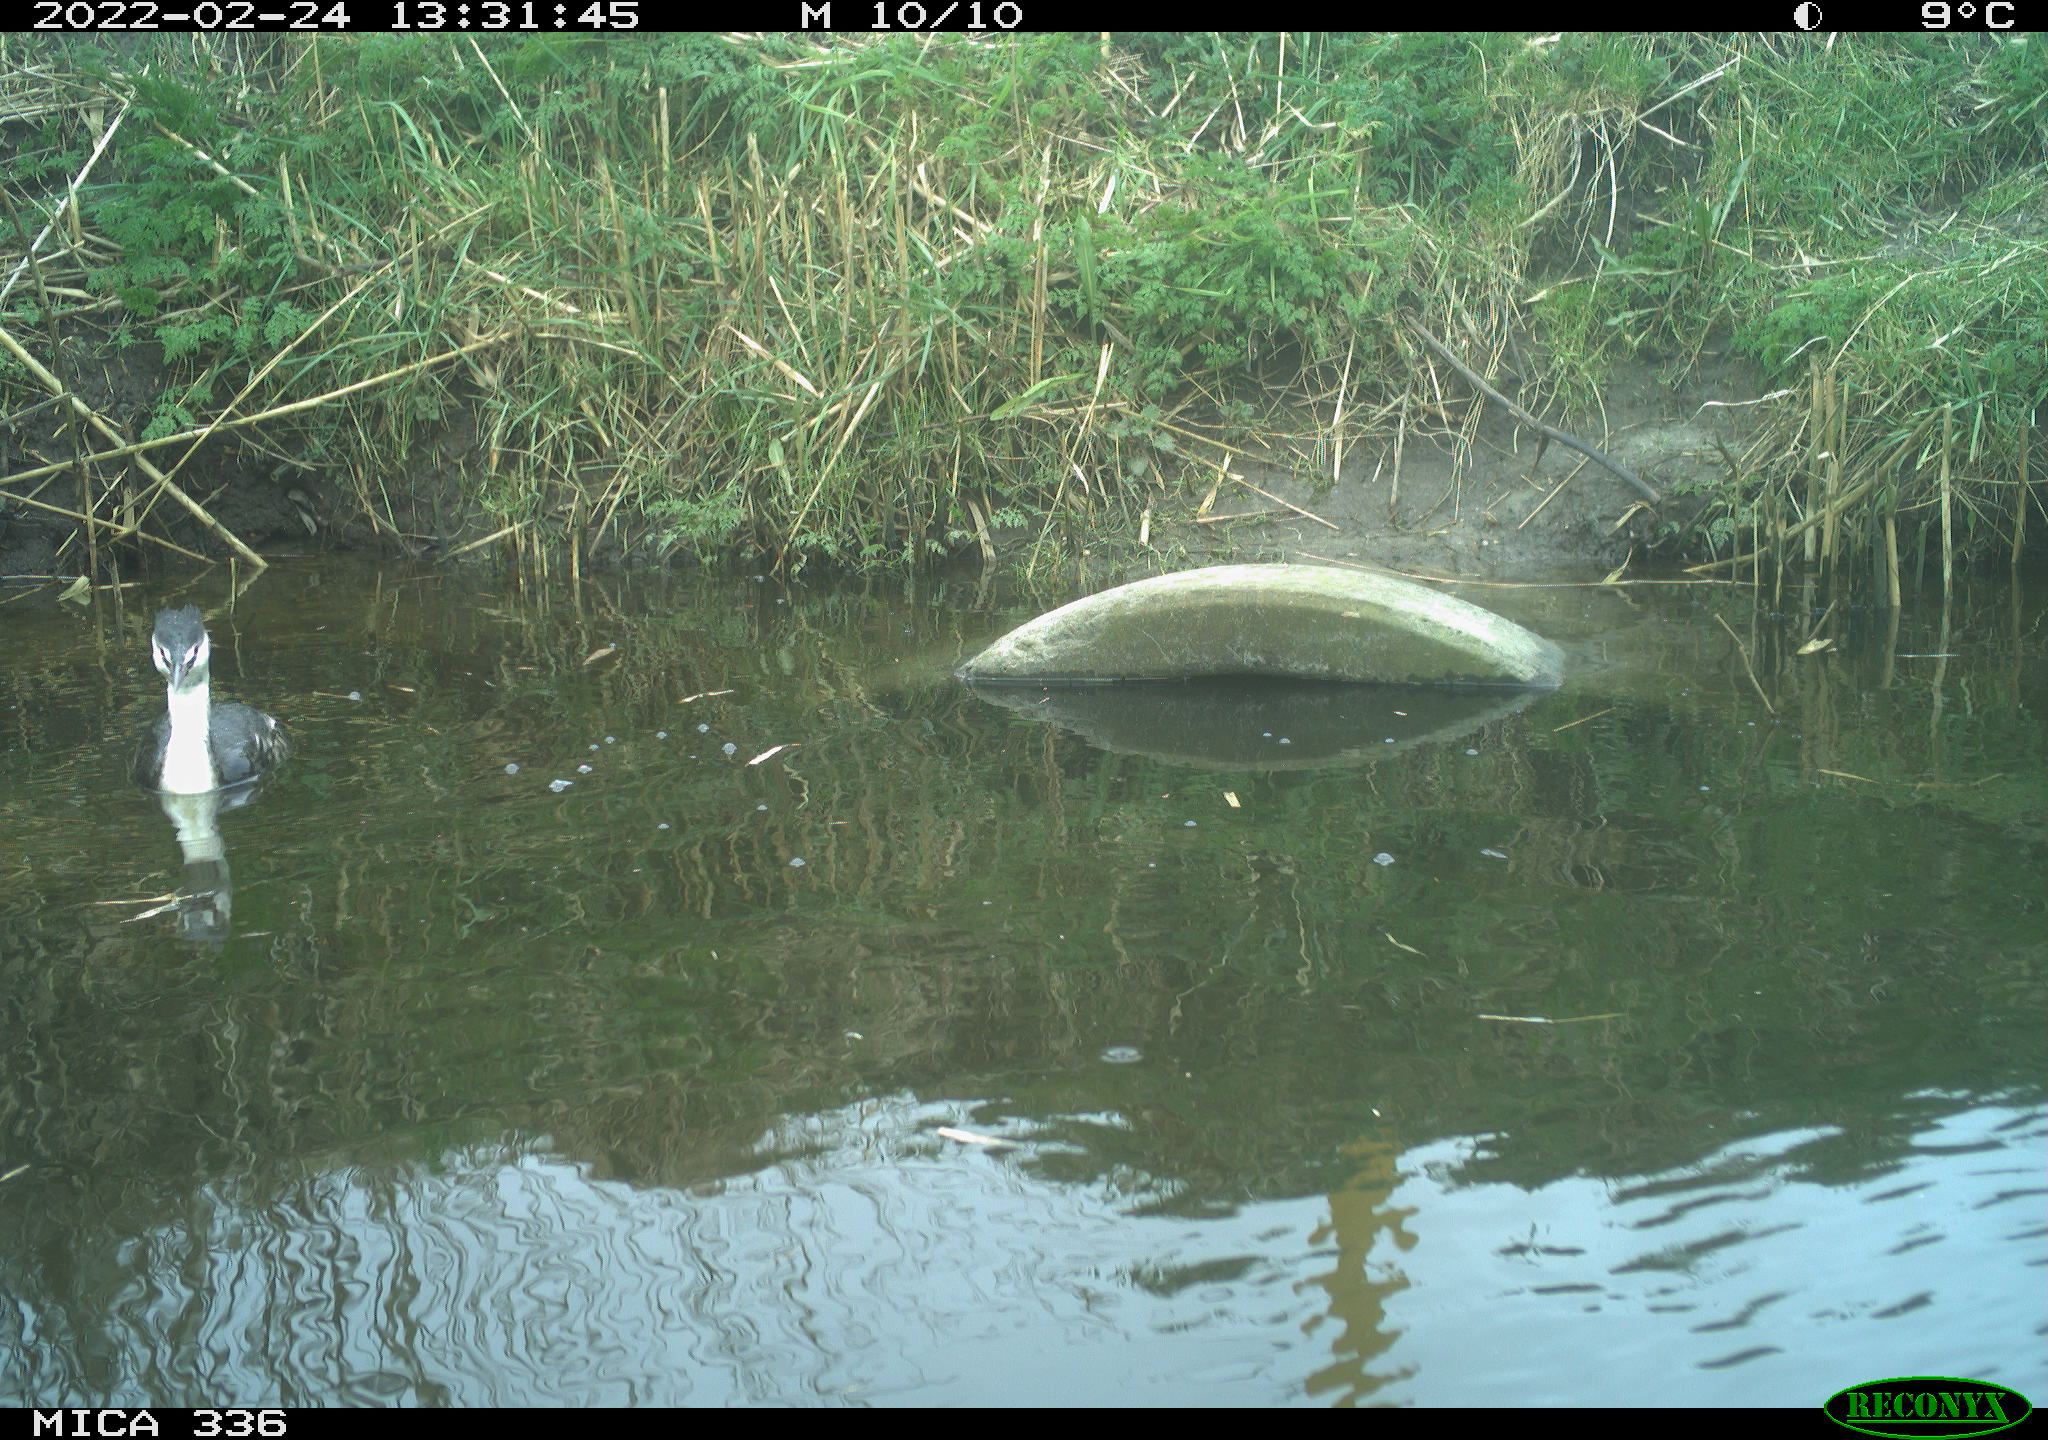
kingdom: Animalia
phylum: Chordata
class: Aves
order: Gruiformes
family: Rallidae
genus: Gallinula
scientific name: Gallinula chloropus
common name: Common moorhen
